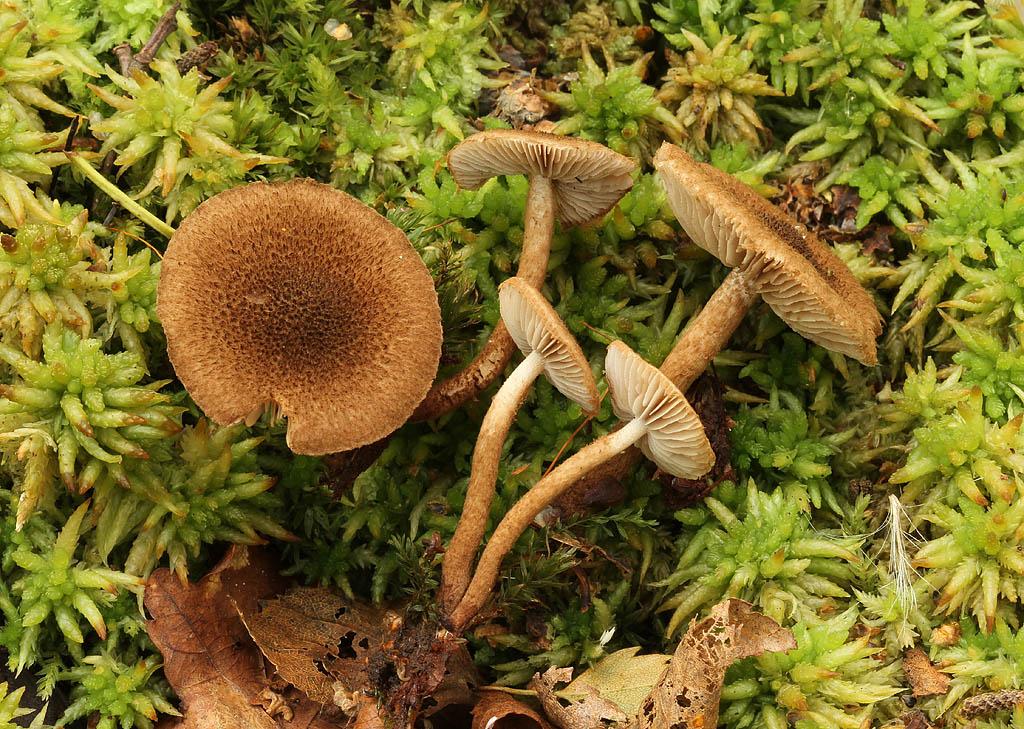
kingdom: Fungi
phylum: Basidiomycota
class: Agaricomycetes
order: Agaricales
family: Inocybaceae
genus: Inocybe
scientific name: Inocybe leptophylla
